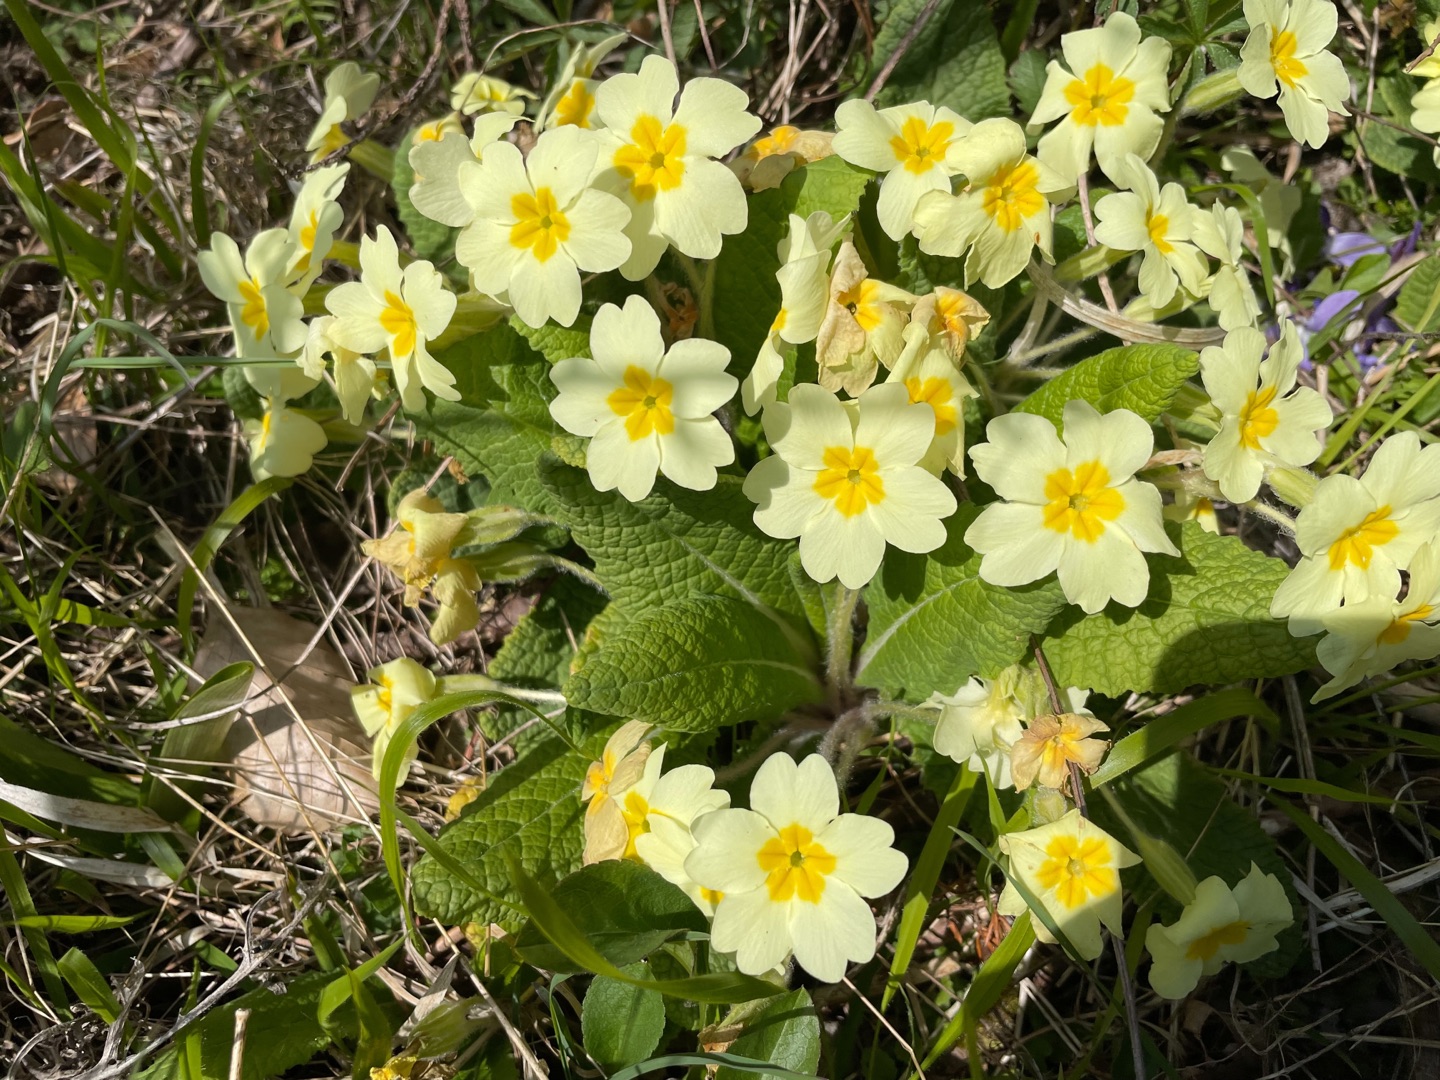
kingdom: Plantae
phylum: Tracheophyta
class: Magnoliopsida
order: Ericales
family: Primulaceae
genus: Primula
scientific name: Primula vulgaris
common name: Storblomstret kodriver
